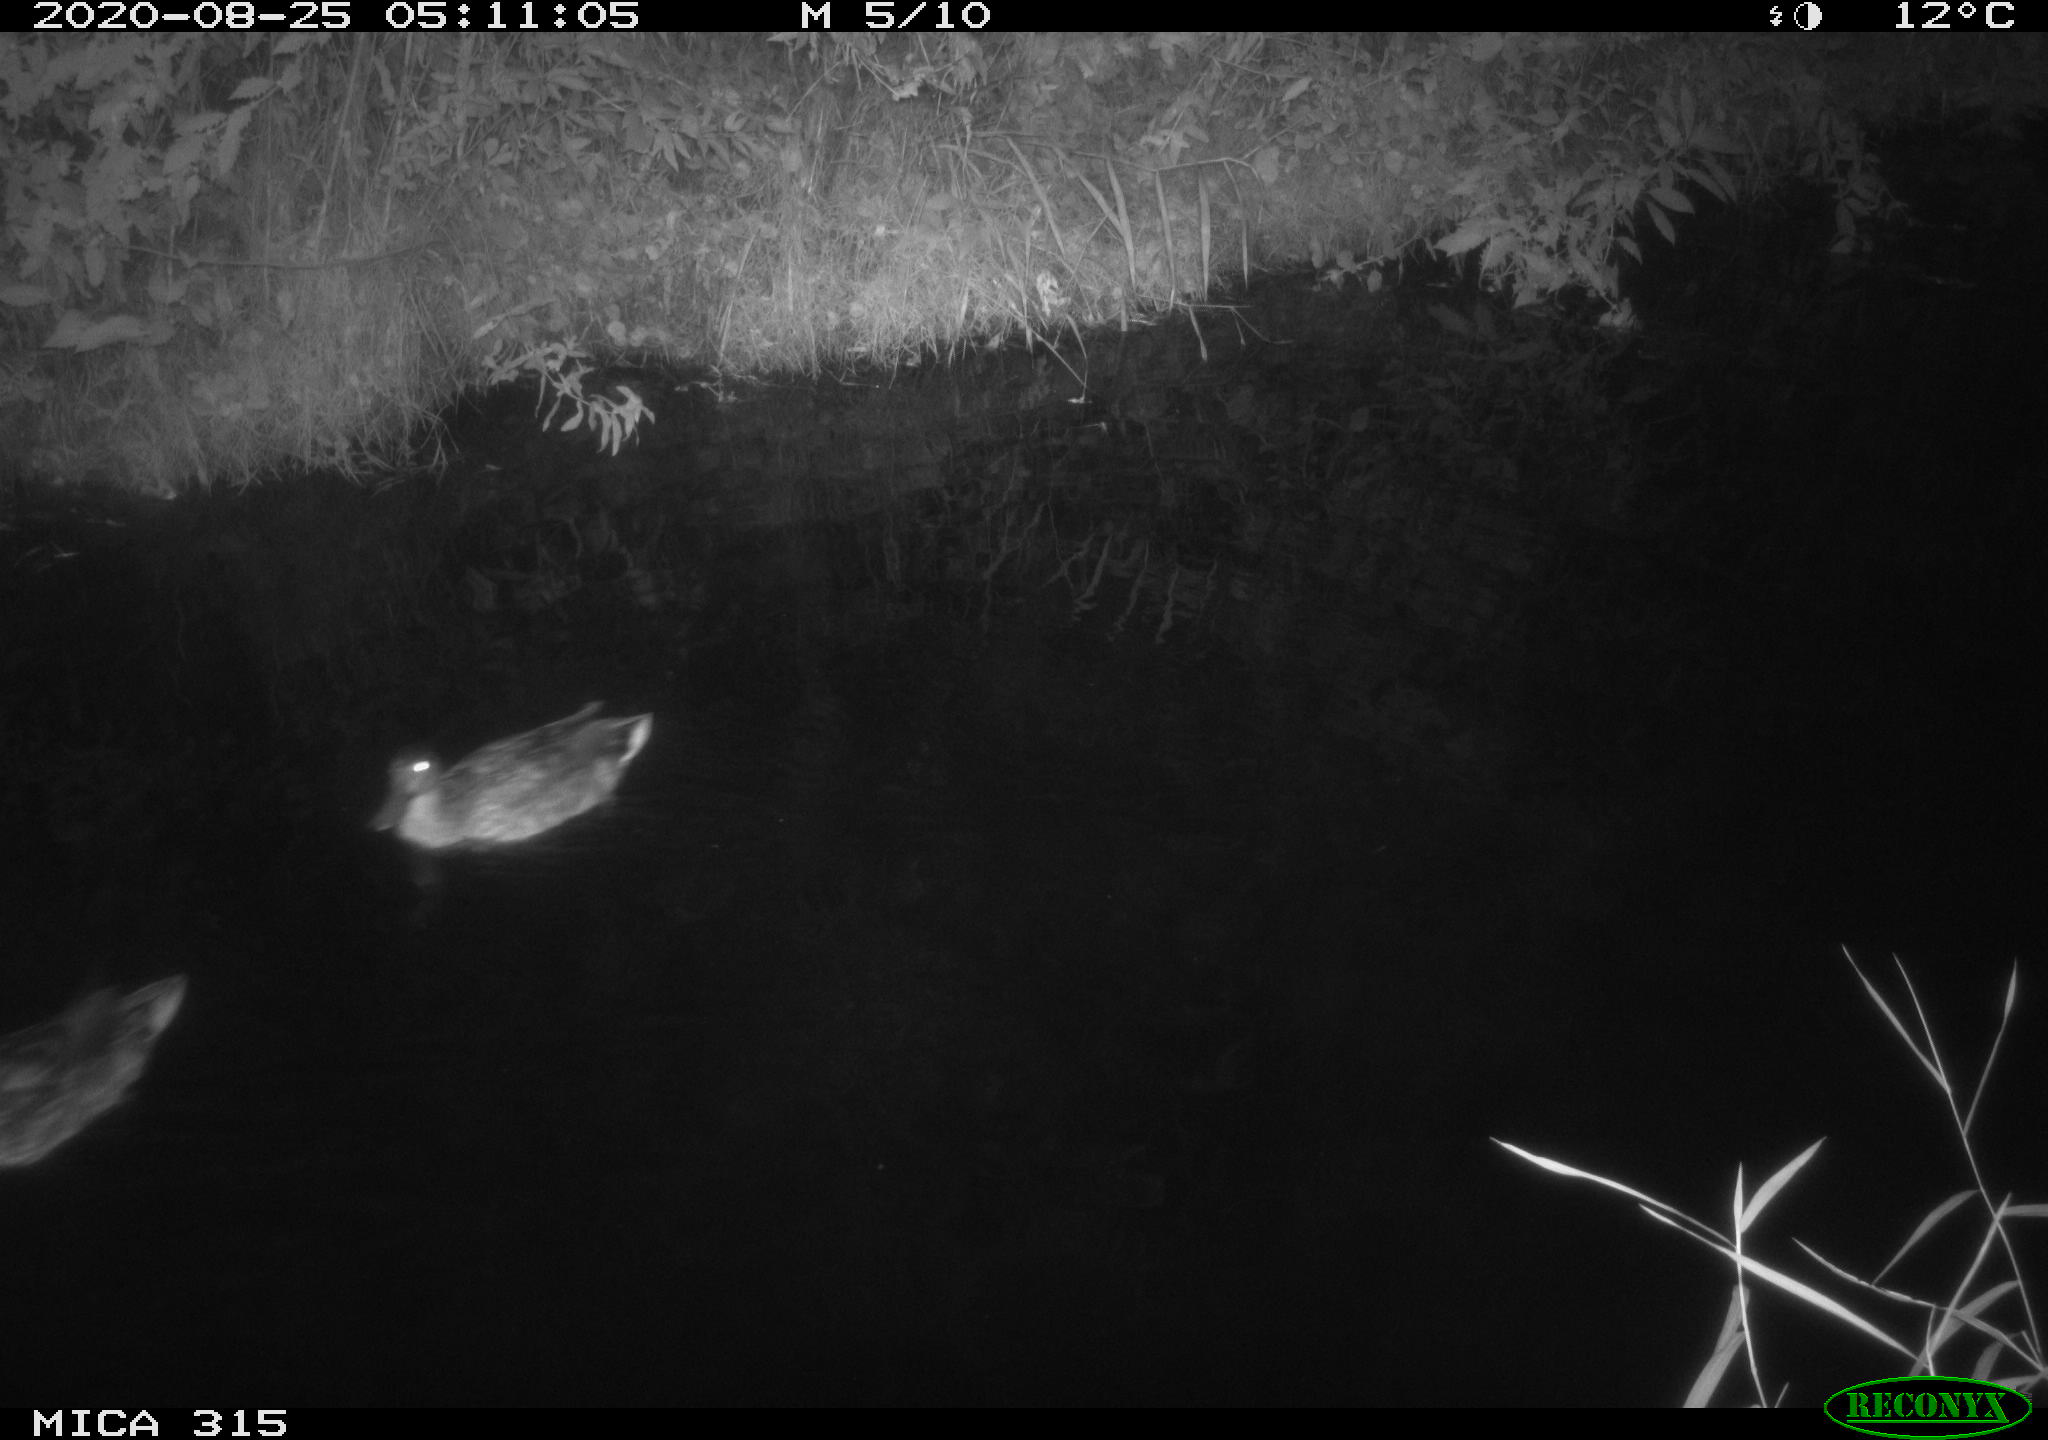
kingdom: Animalia
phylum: Chordata
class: Aves
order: Anseriformes
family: Anatidae
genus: Anas
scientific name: Anas platyrhynchos
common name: Mallard
